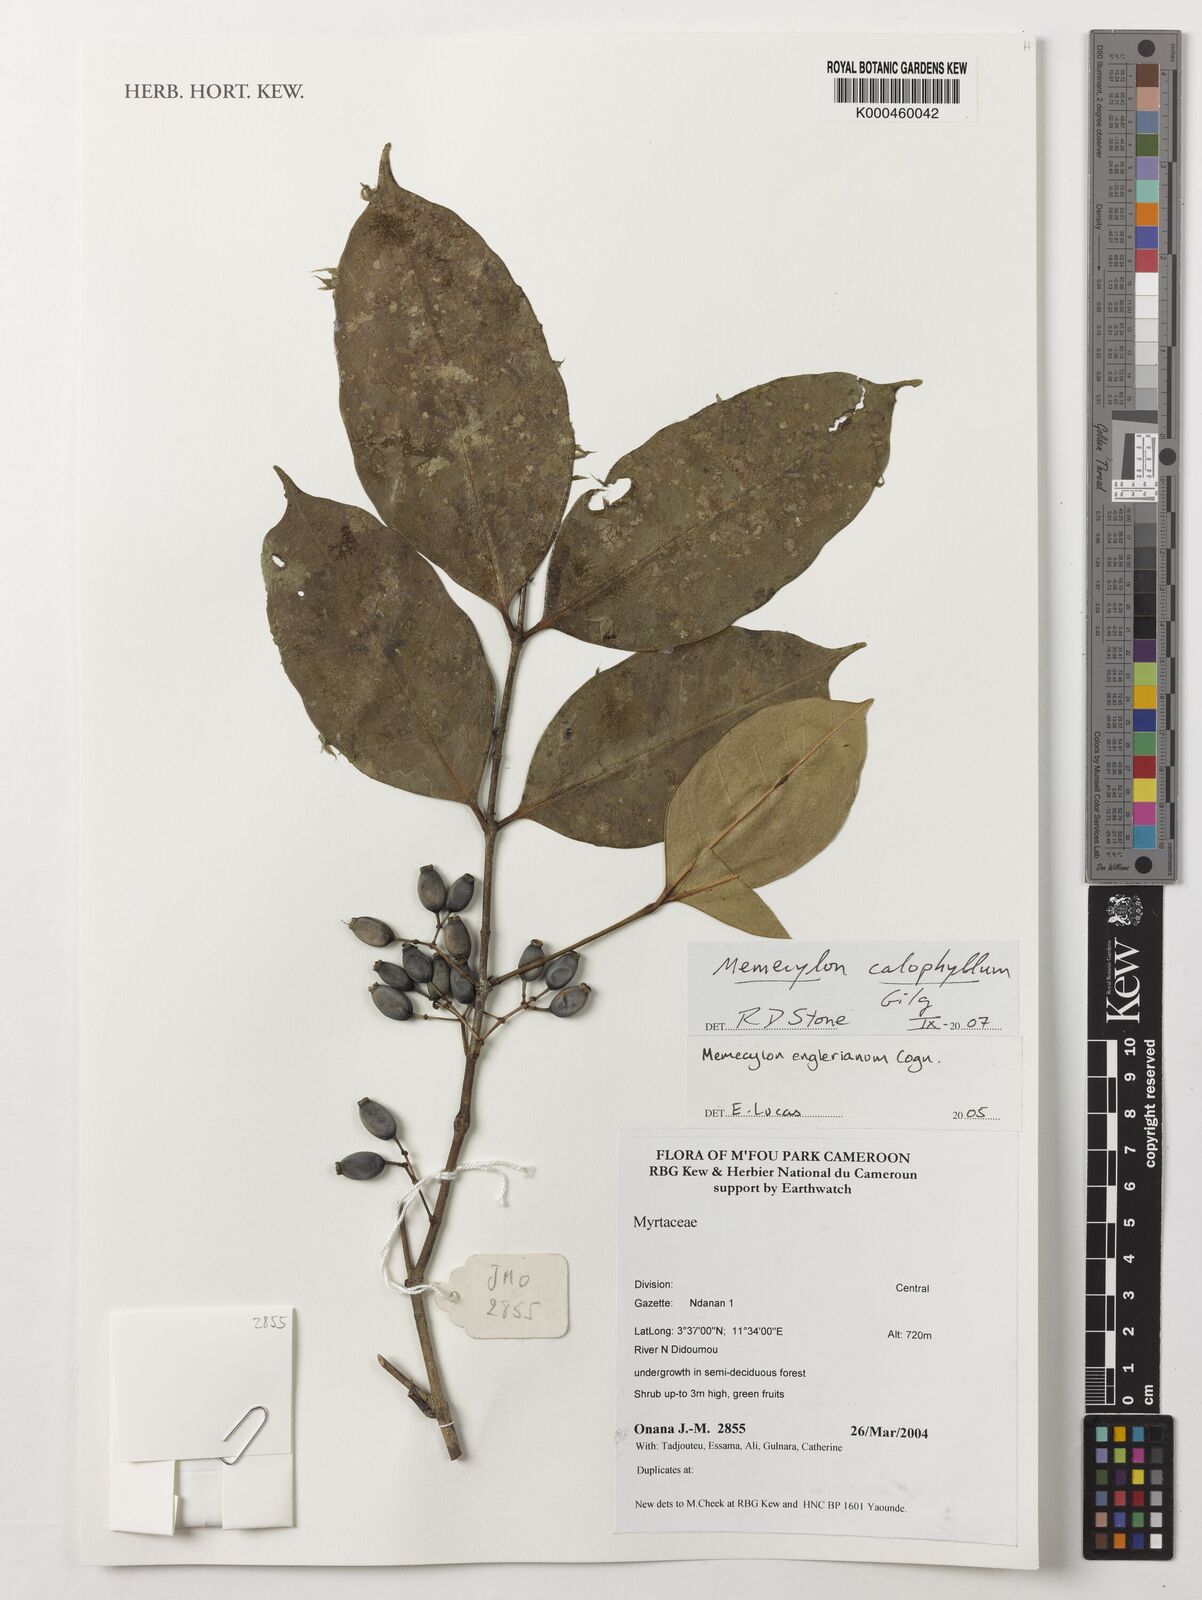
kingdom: Plantae
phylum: Tracheophyta
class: Magnoliopsida
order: Myrtales
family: Melastomataceae
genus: Memecylon
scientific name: Memecylon calophyllum
